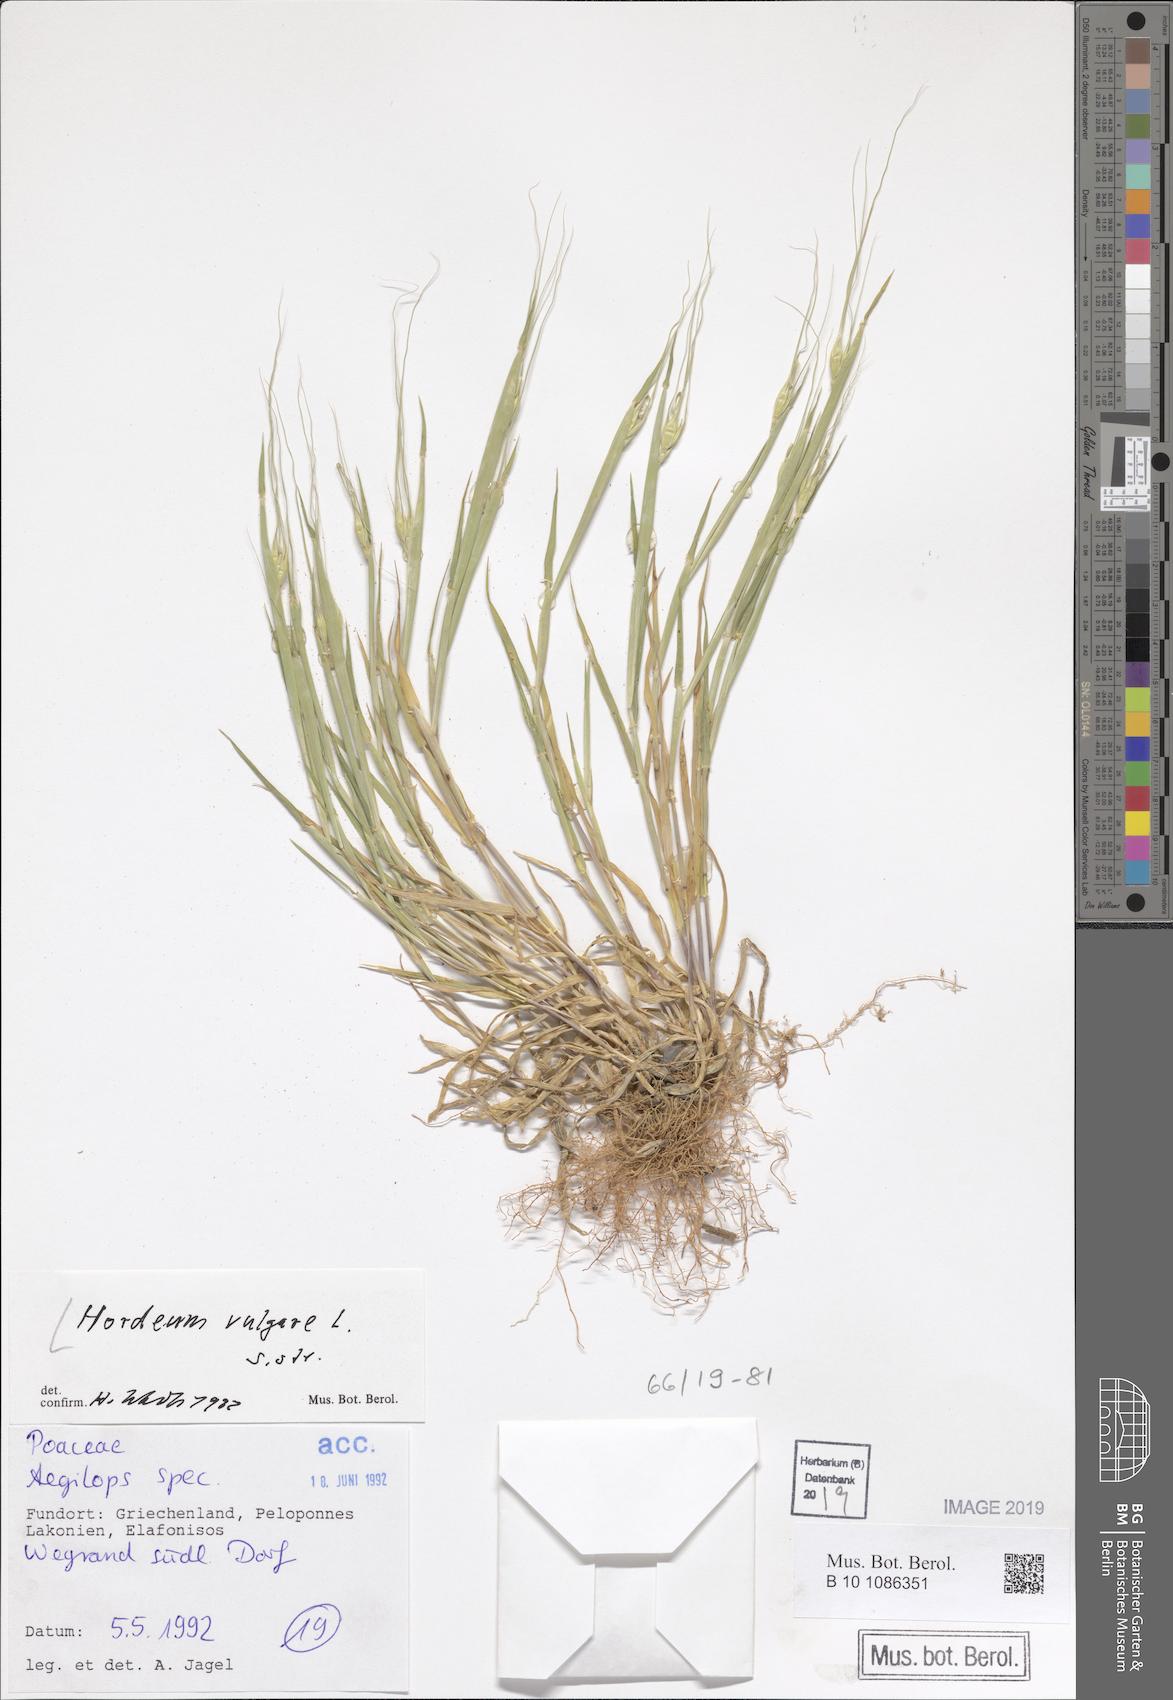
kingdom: Plantae
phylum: Tracheophyta
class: Liliopsida
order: Poales
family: Poaceae
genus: Hordeum
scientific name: Hordeum vulgare
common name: Common barley
